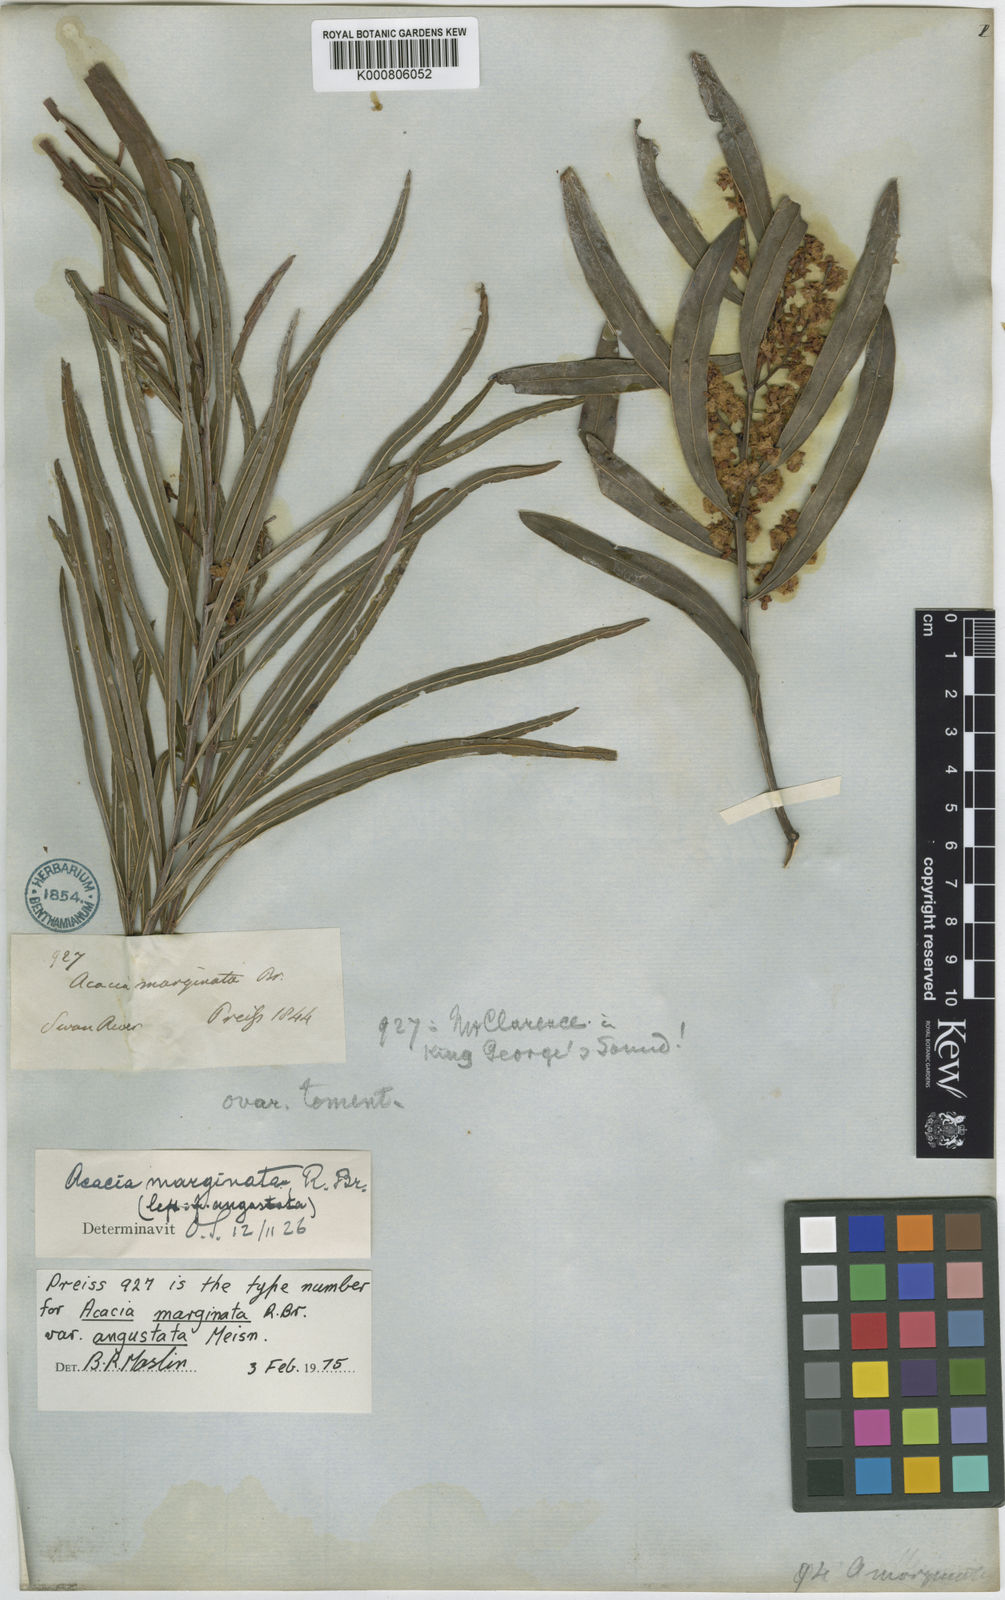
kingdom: Plantae
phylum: Tracheophyta
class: Magnoliopsida
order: Fabales
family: Fabaceae
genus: Acacia
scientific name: Acacia myrtifolia
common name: Myrtle wattle
